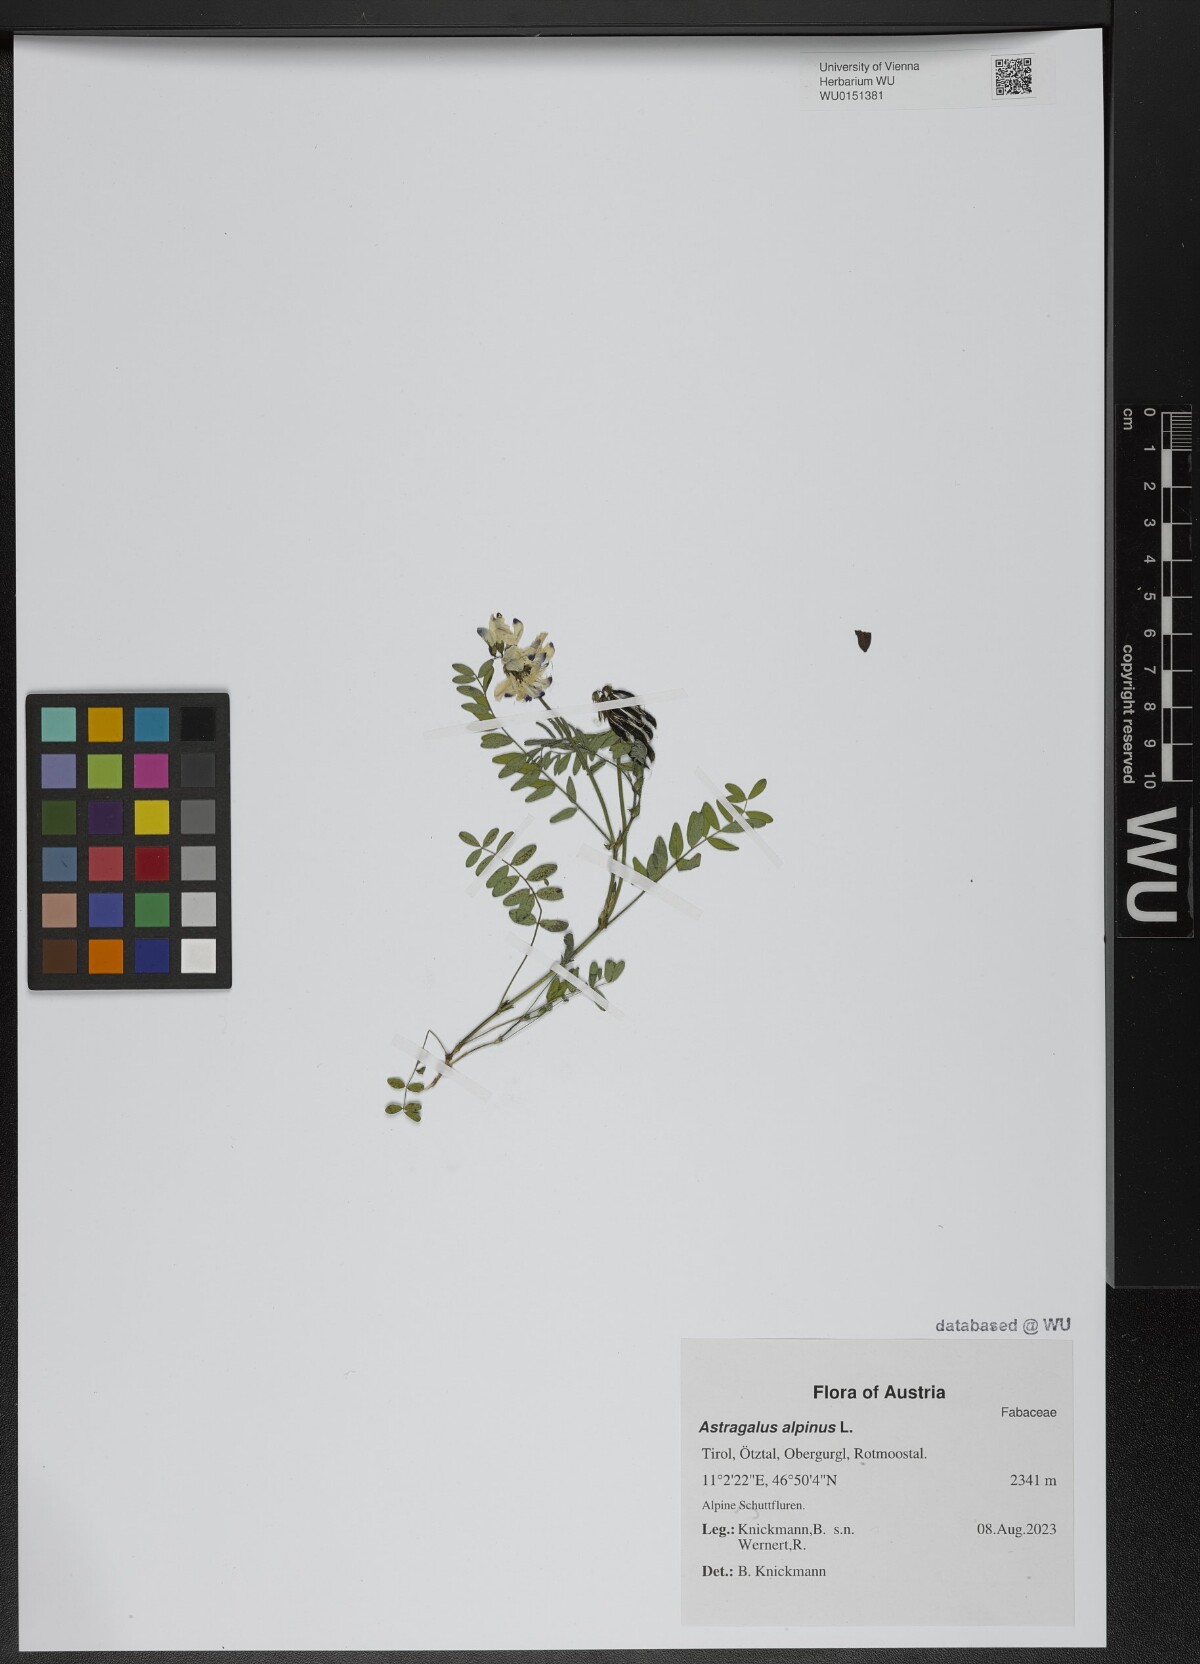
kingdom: Plantae
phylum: Tracheophyta
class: Magnoliopsida
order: Fabales
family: Fabaceae
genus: Astragalus
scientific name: Astragalus alpinus
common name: Alpine milk-vetch
